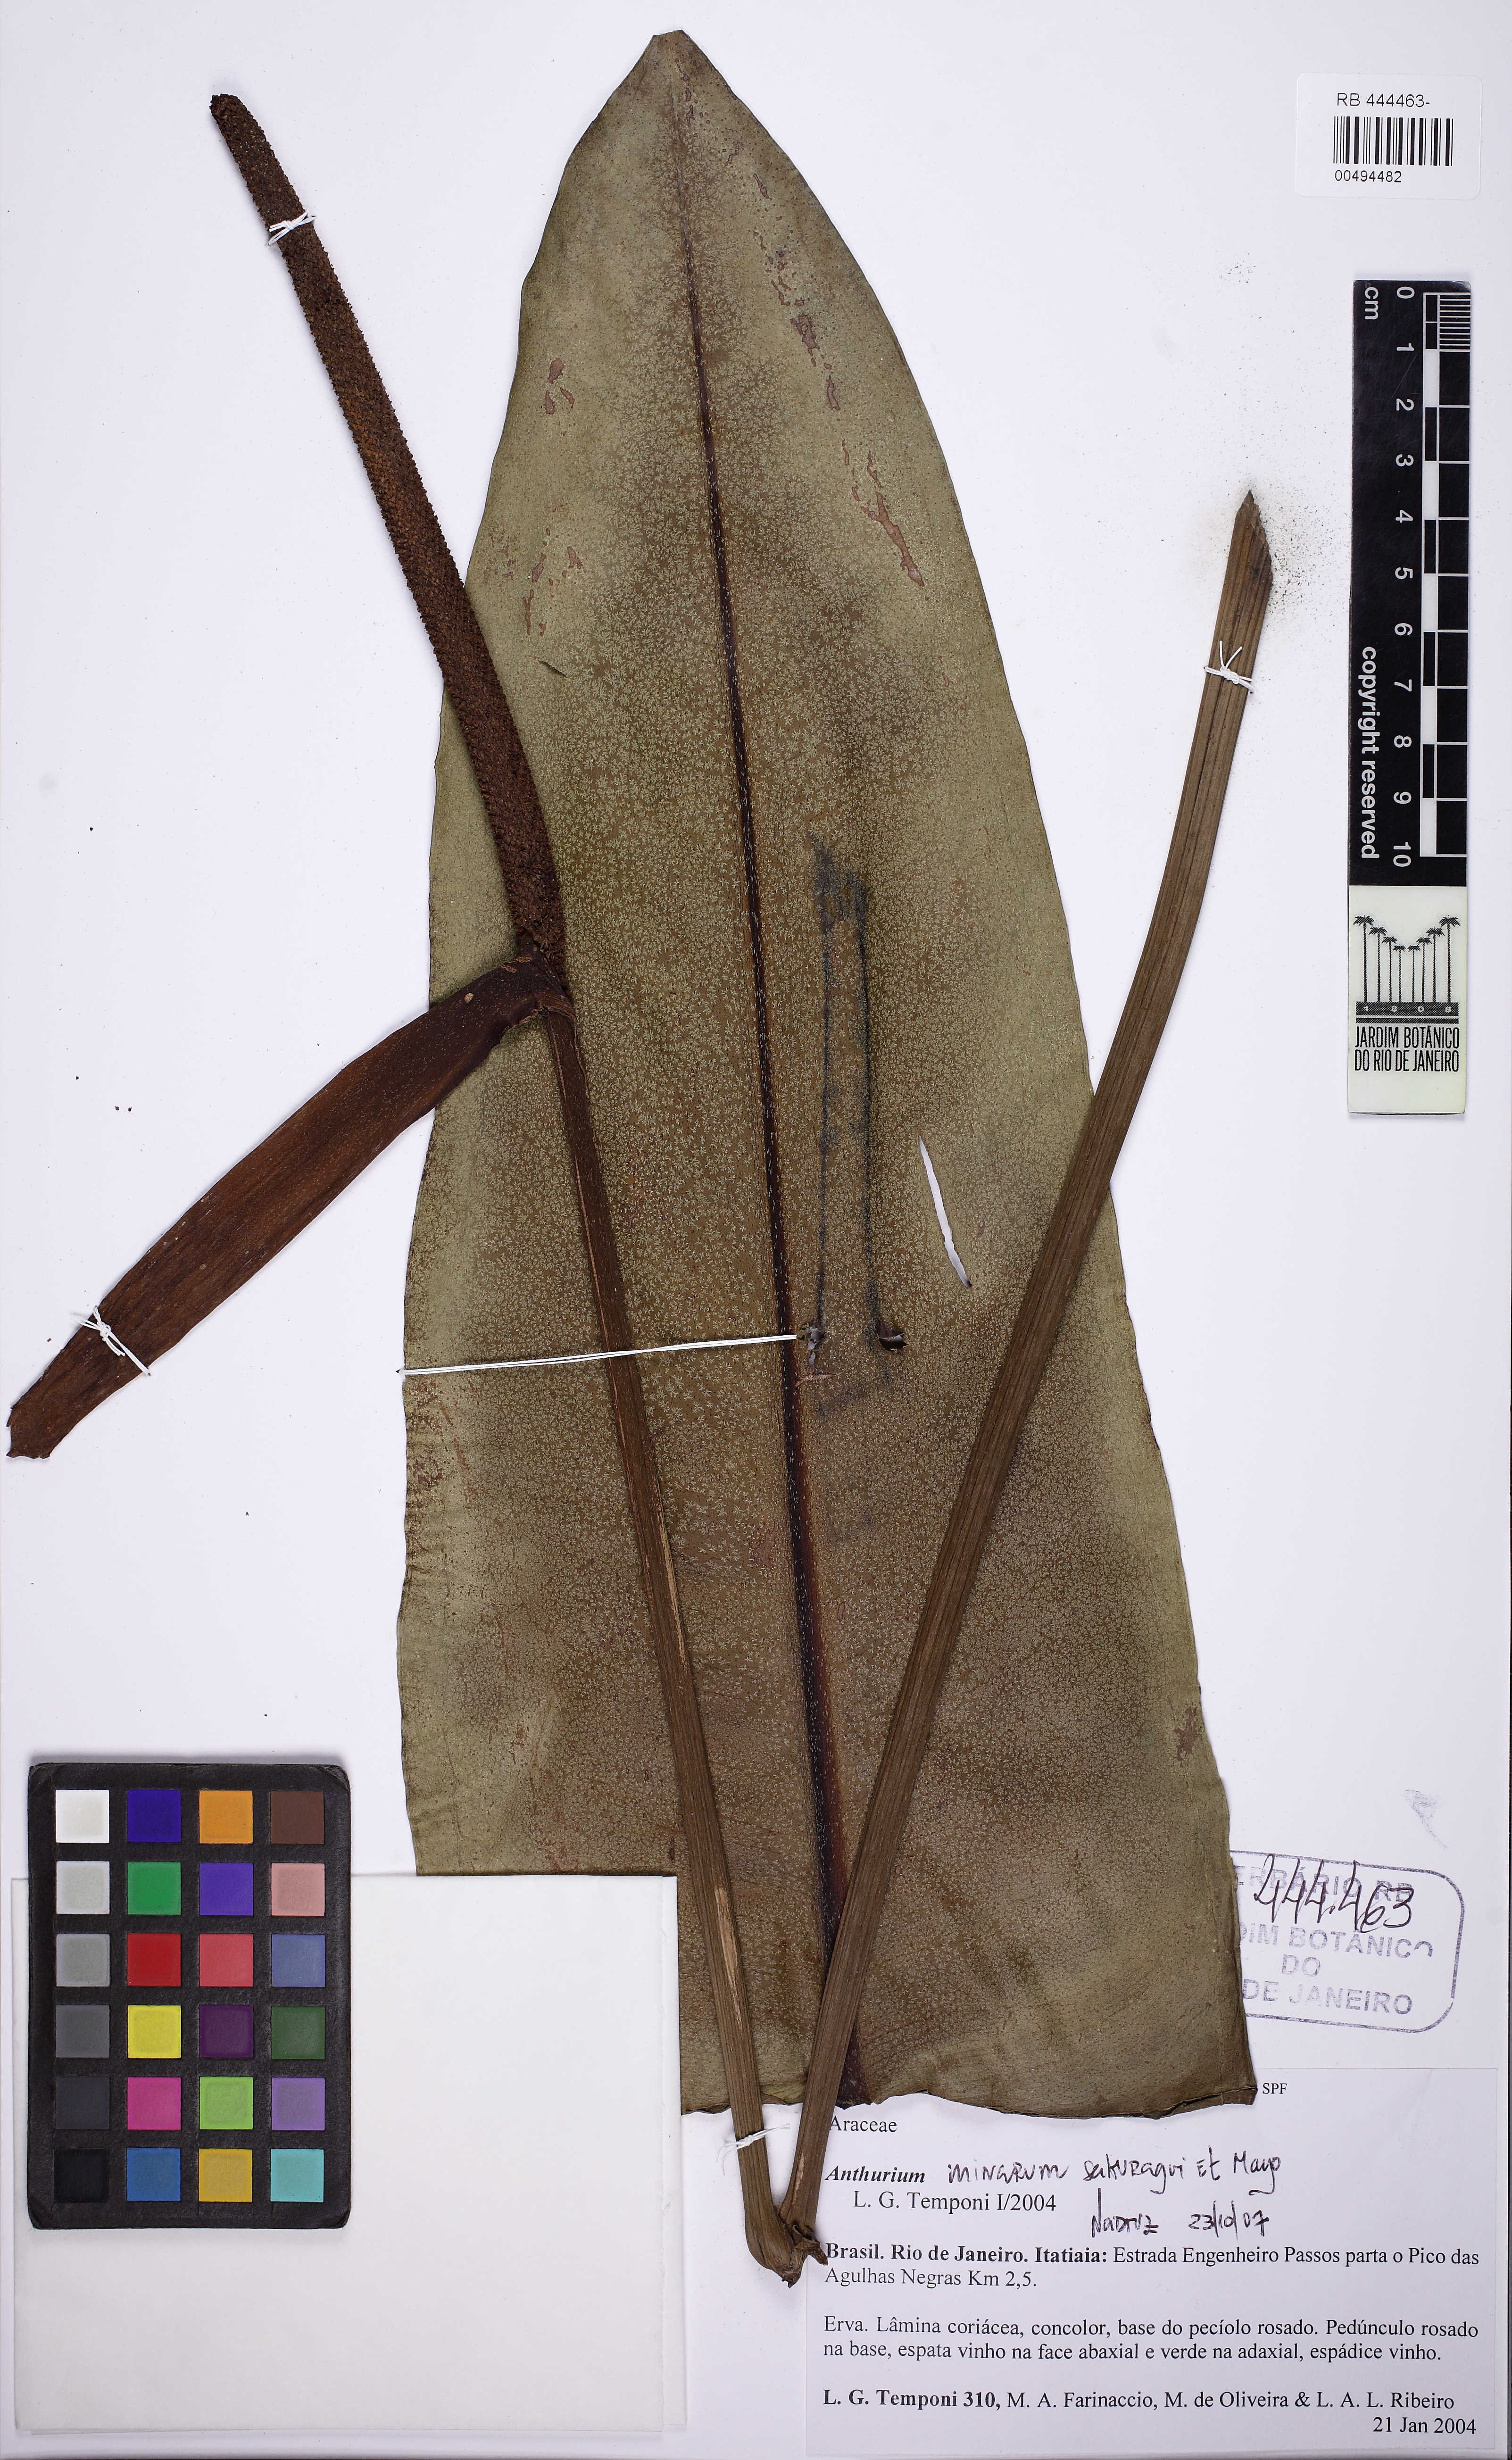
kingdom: Plantae
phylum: Tracheophyta
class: Liliopsida
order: Alismatales
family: Araceae
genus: Anthurium
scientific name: Anthurium minarum
